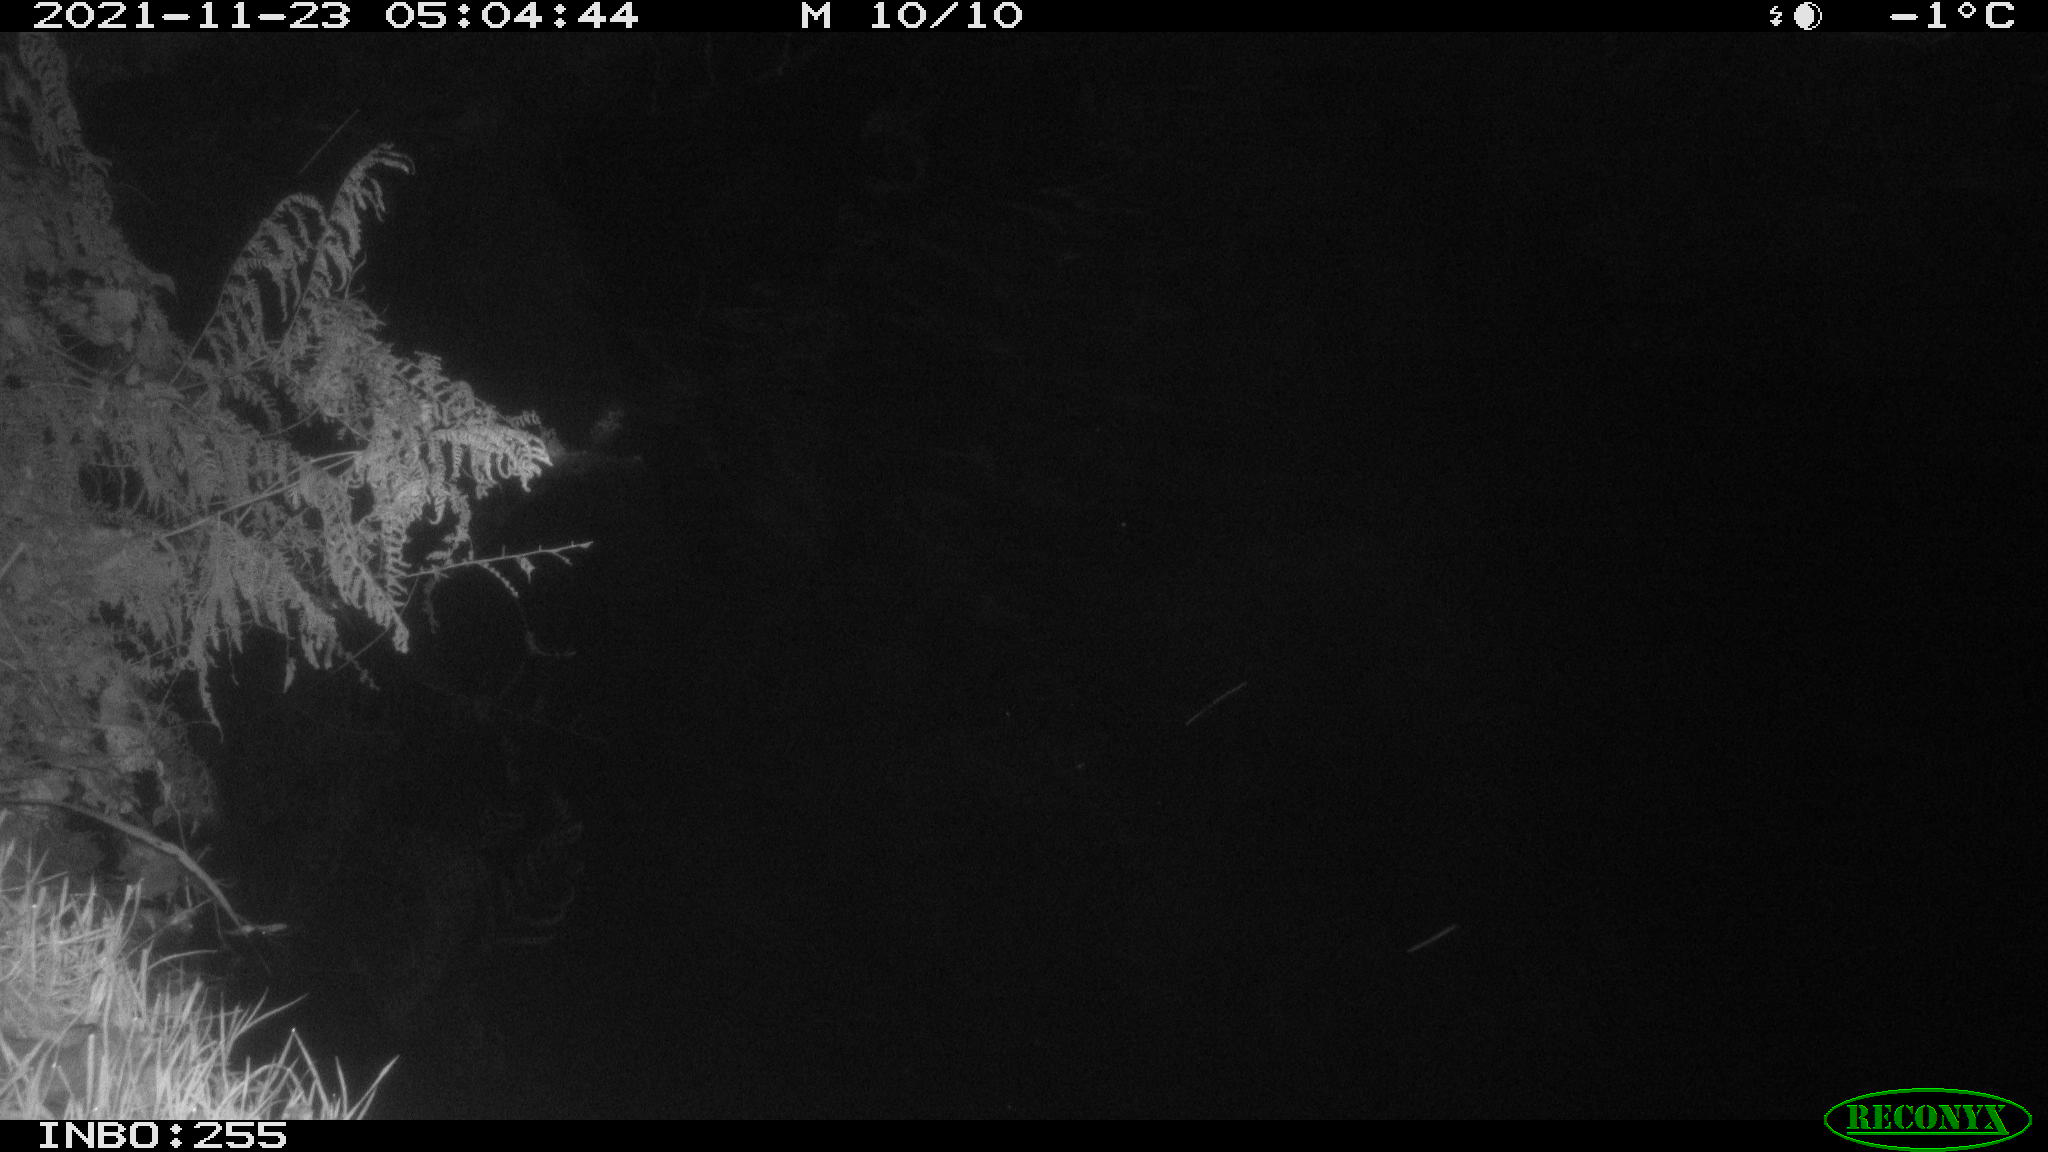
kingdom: Animalia
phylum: Chordata
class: Aves
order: Anseriformes
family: Anatidae
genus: Anas
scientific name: Anas platyrhynchos
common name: Mallard
